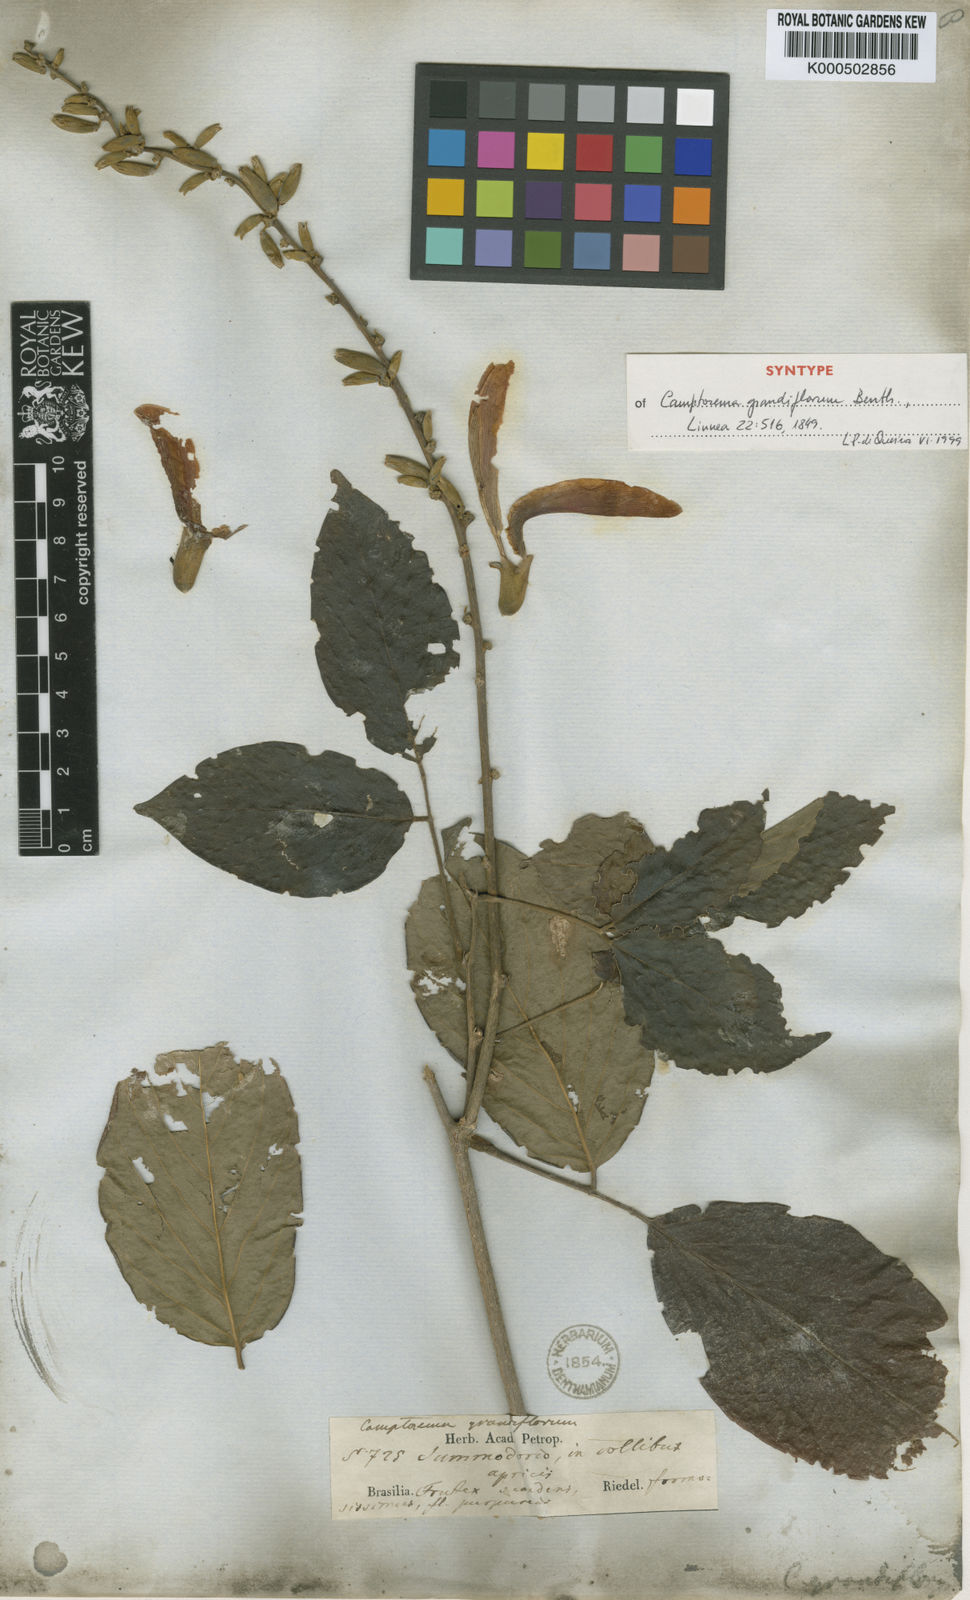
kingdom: Plantae
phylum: Tracheophyta
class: Magnoliopsida
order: Fabales
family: Fabaceae
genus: Camptosema
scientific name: Camptosema spectabile
